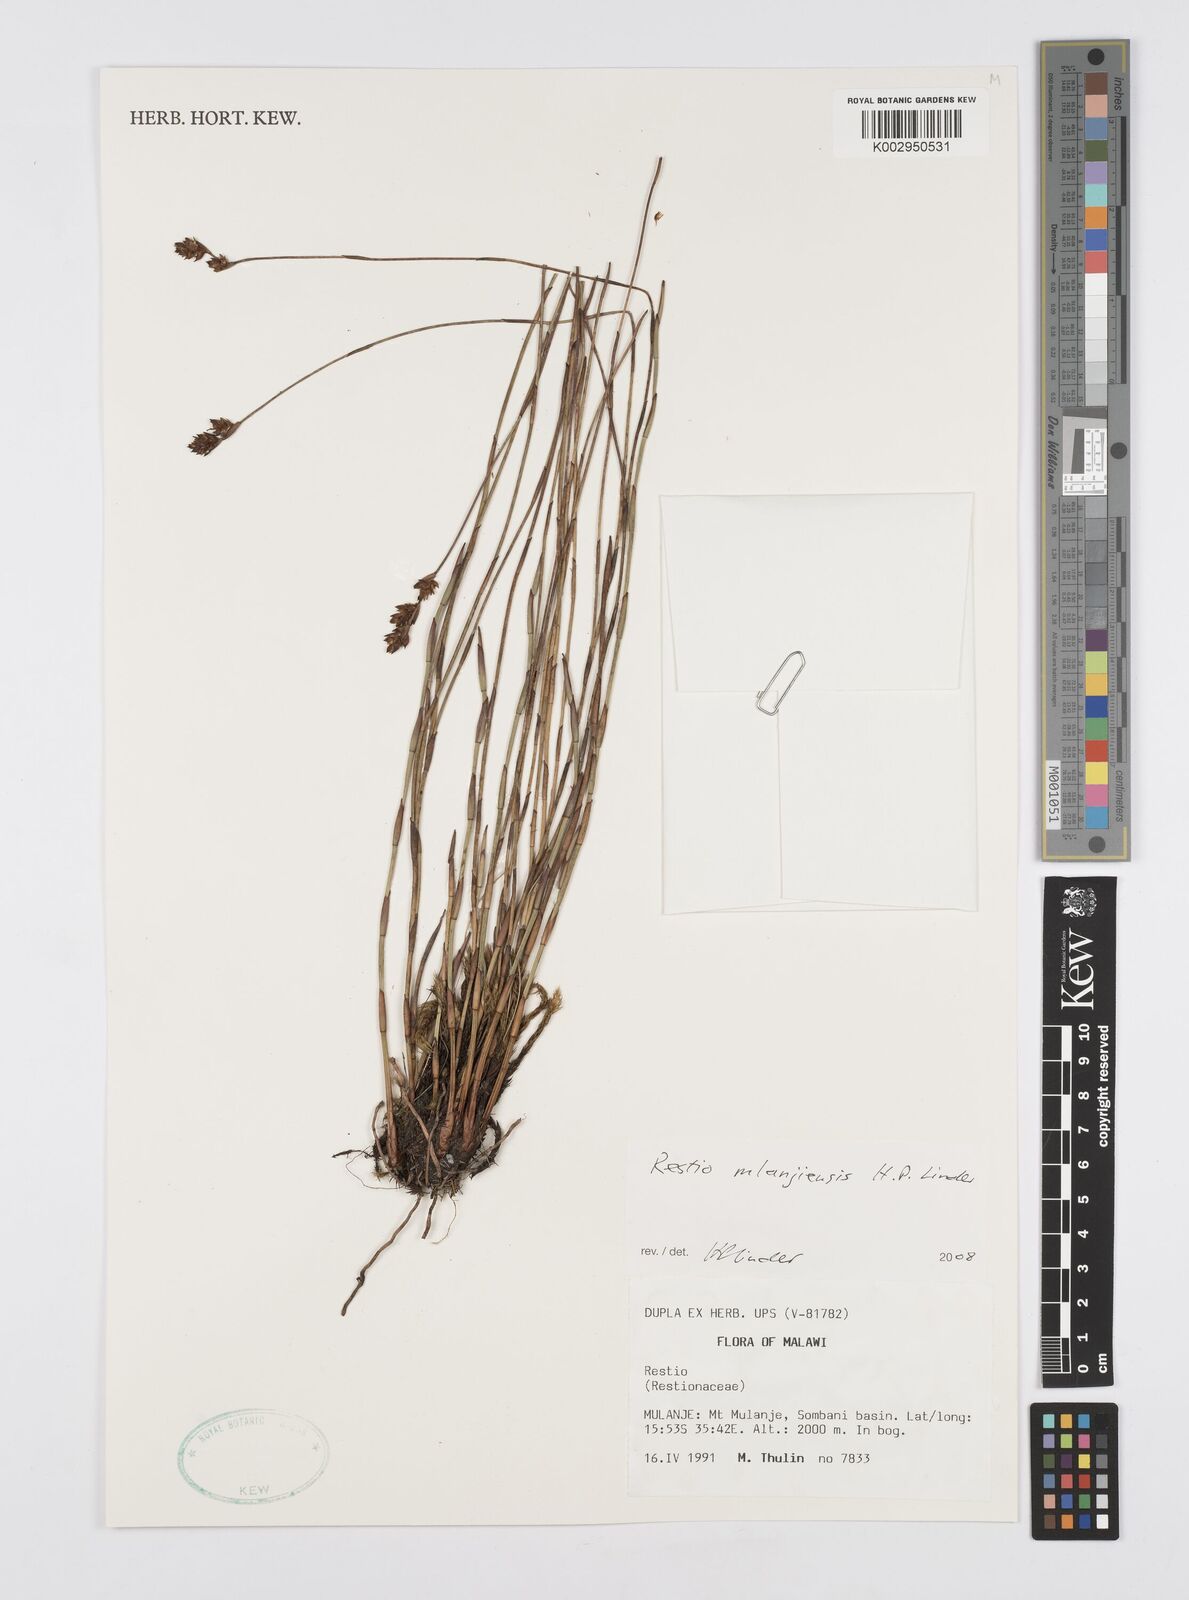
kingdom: Plantae
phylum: Tracheophyta
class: Liliopsida
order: Poales
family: Restionaceae
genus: Platycaulos
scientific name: Platycaulos mlanjiensis
